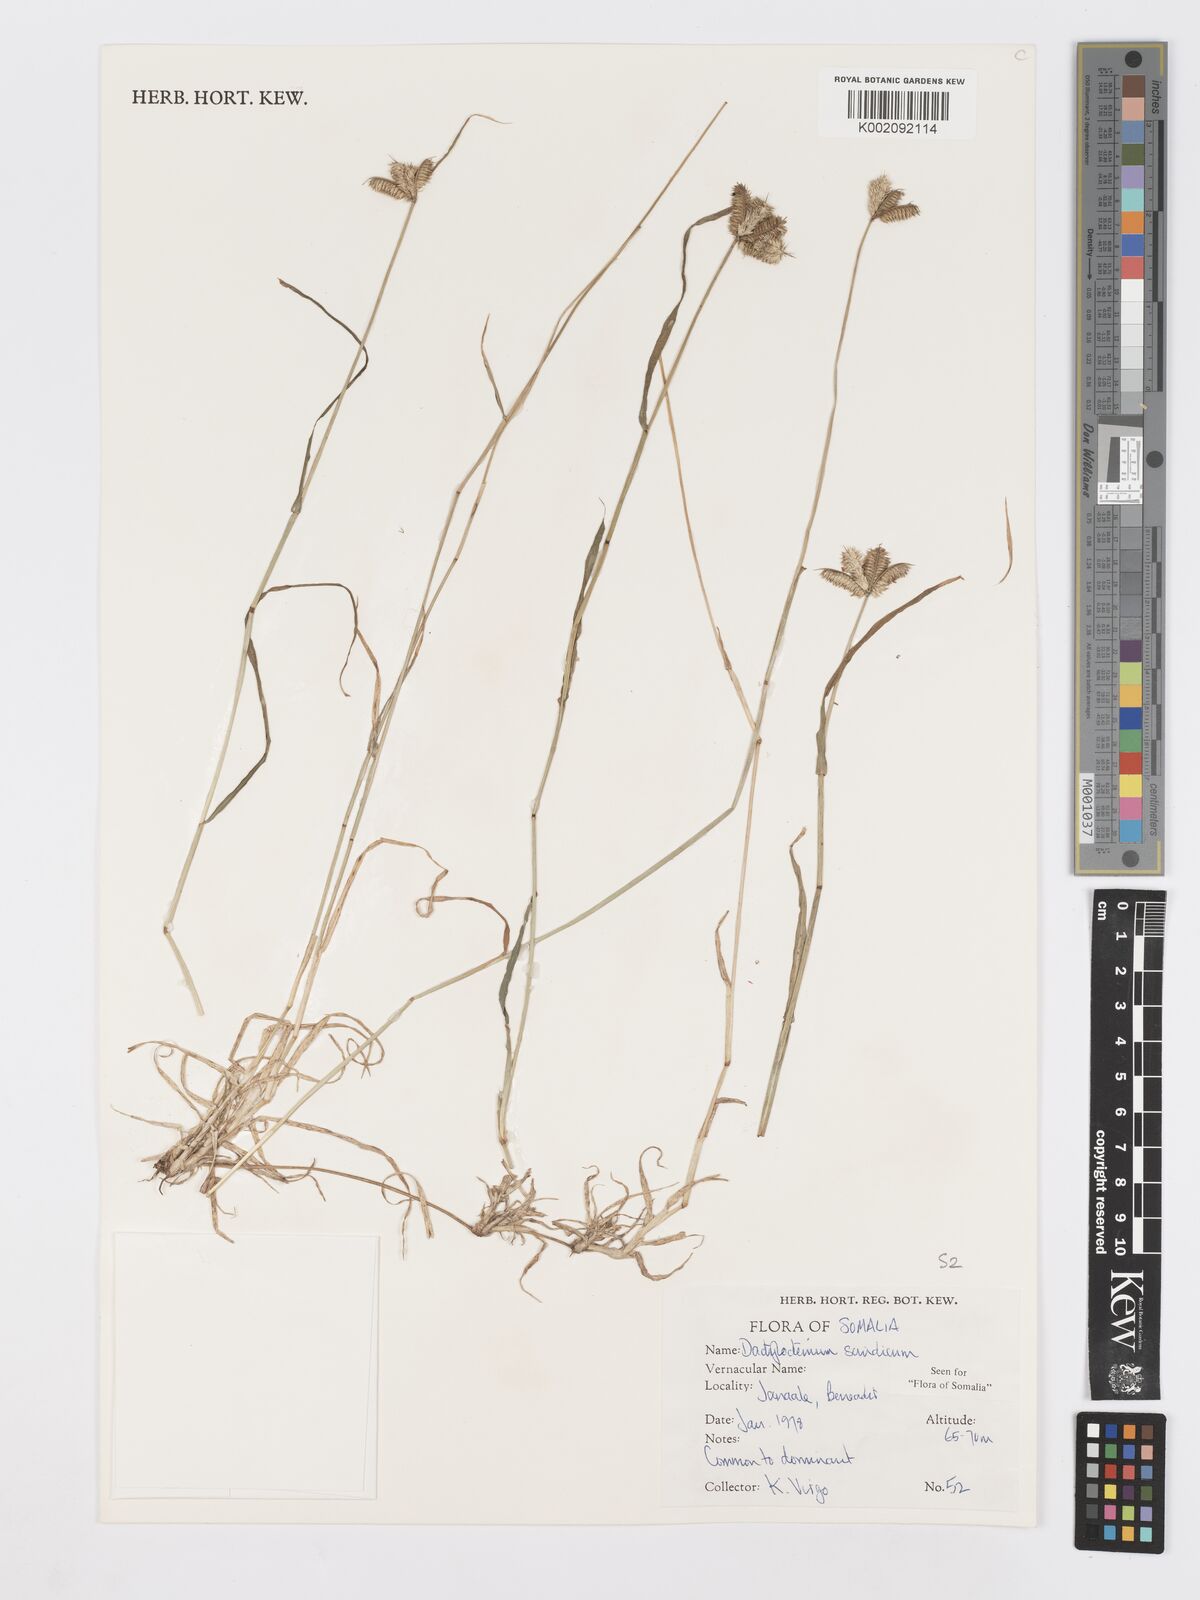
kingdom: Plantae
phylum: Tracheophyta
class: Liliopsida
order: Poales
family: Poaceae
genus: Dactyloctenium
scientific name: Dactyloctenium scindicum
